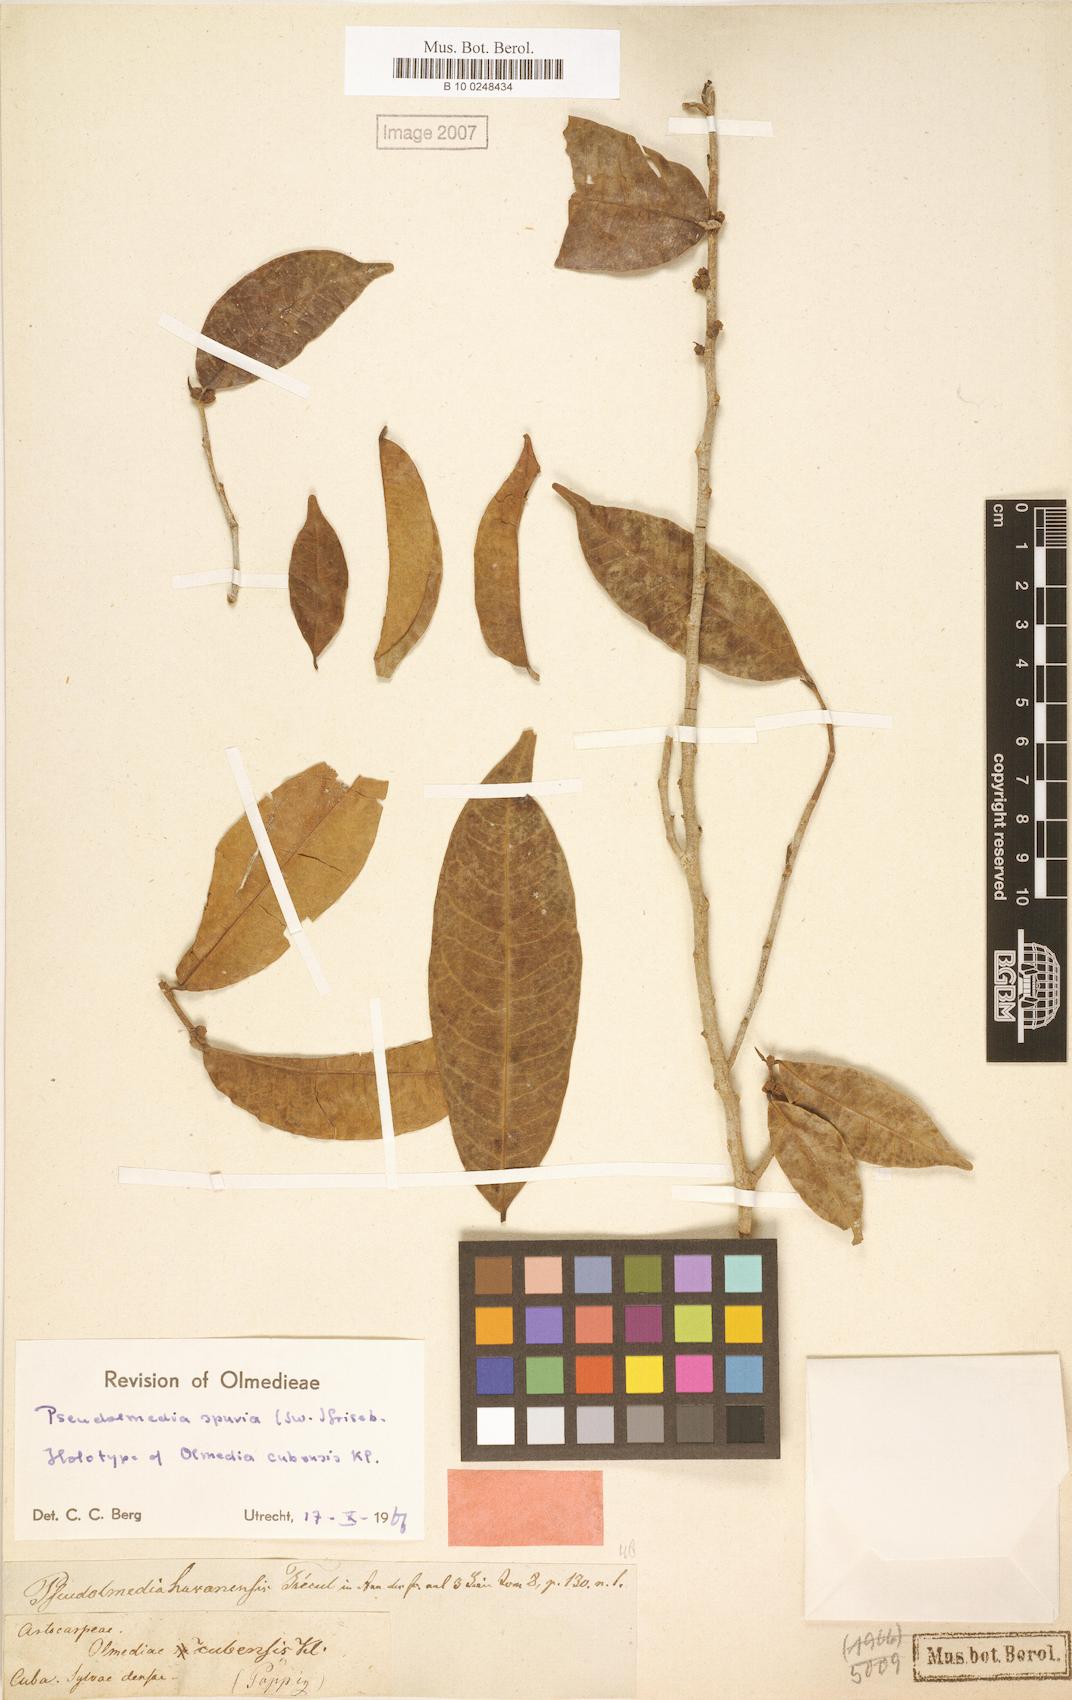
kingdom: Plantae
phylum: Tracheophyta
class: Magnoliopsida
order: Rosales
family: Moraceae
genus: Pseudolmedia
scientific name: Pseudolmedia spuria
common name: Bastard-cherry
